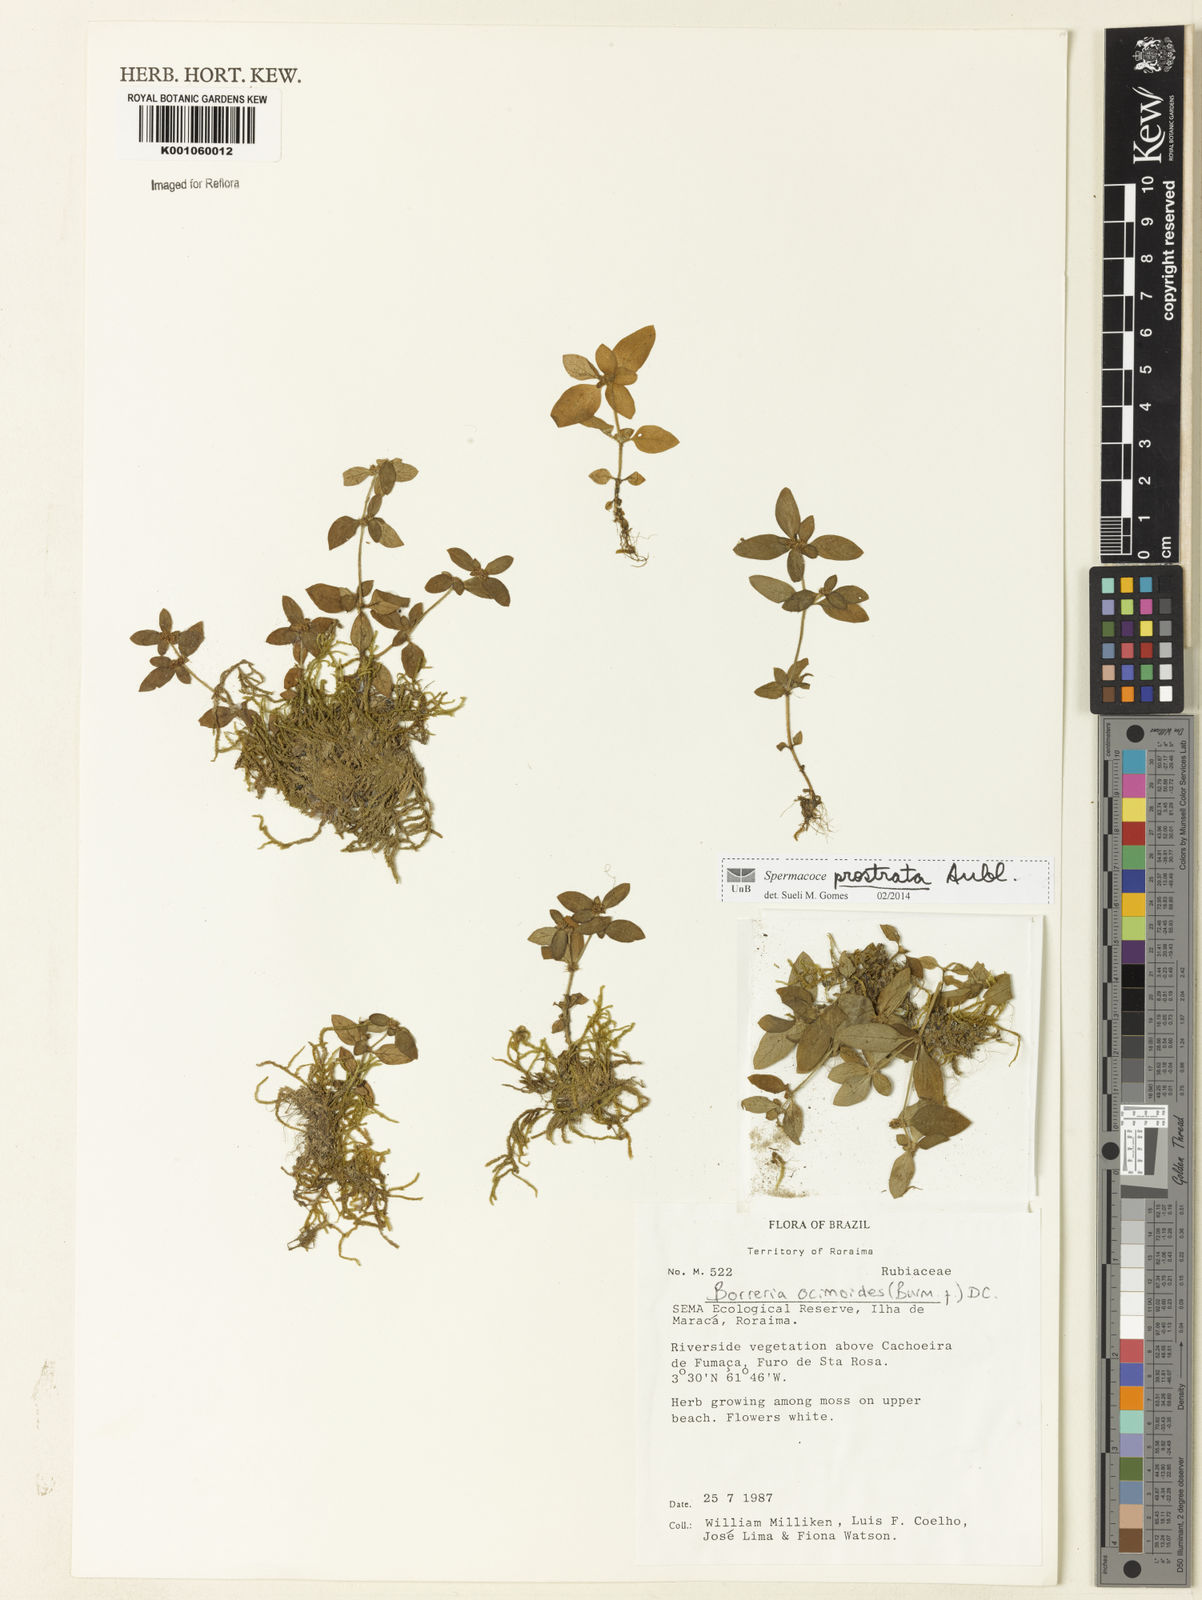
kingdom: Plantae
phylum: Tracheophyta
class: Magnoliopsida
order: Gentianales
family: Rubiaceae
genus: Spermacoce
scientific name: Spermacoce
